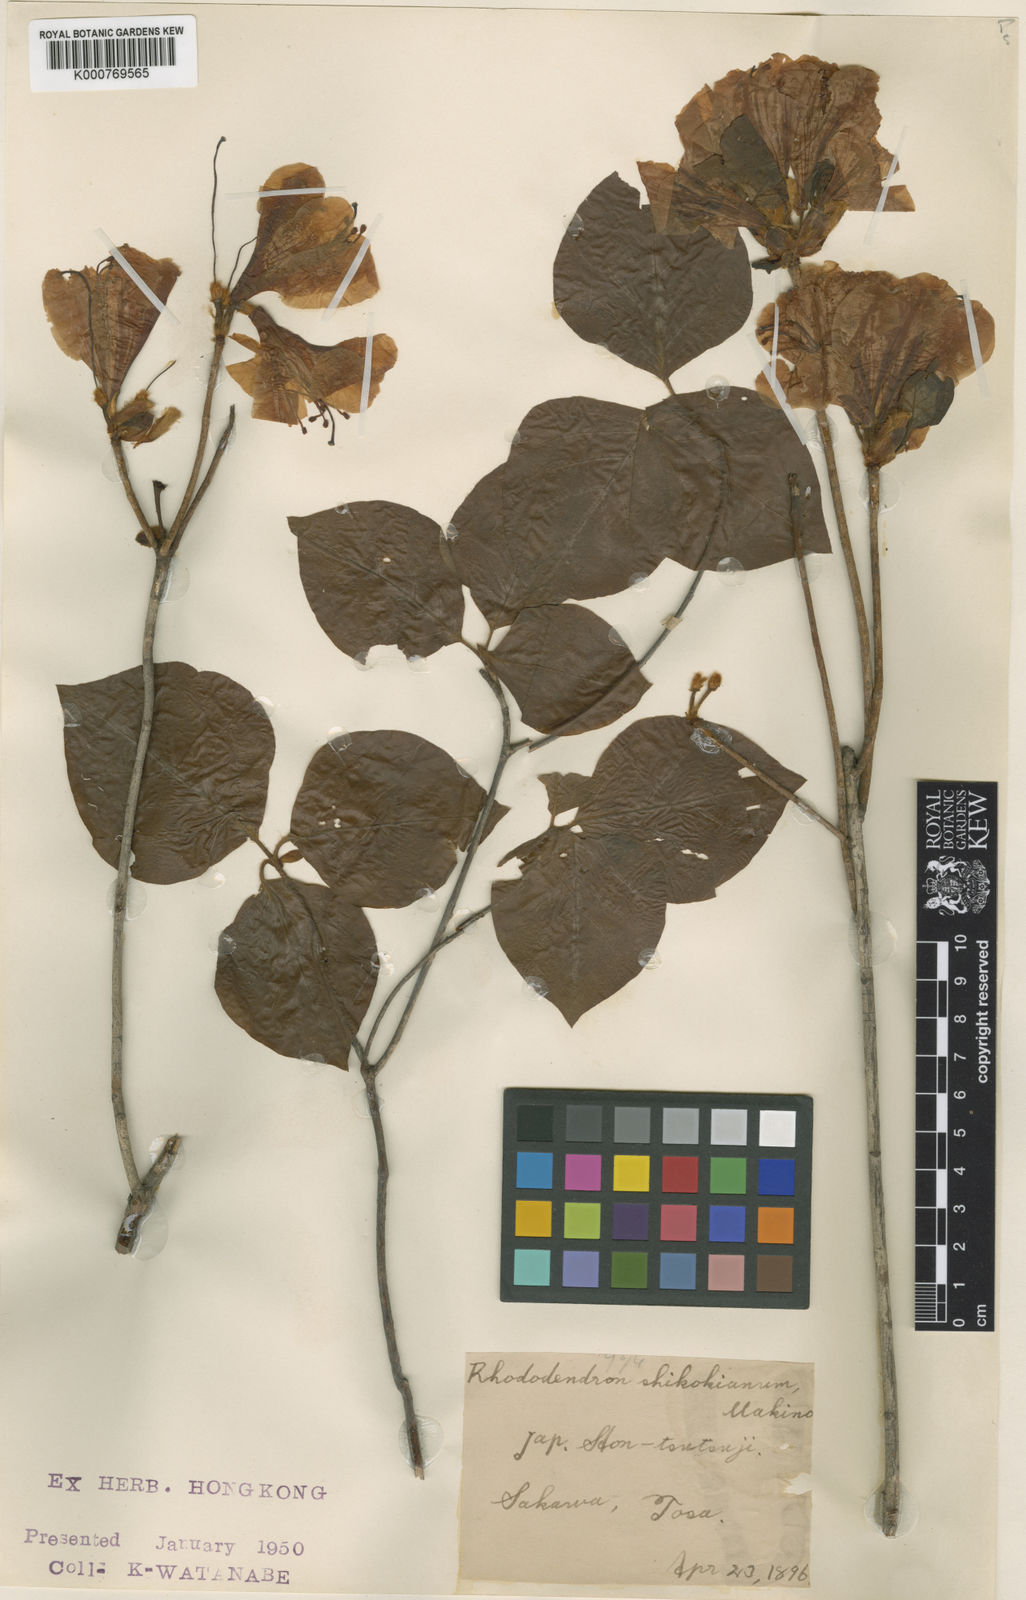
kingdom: Plantae
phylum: Tracheophyta
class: Magnoliopsida
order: Ericales
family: Ericaceae
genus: Rhododendron
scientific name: Rhododendron weyrichii
